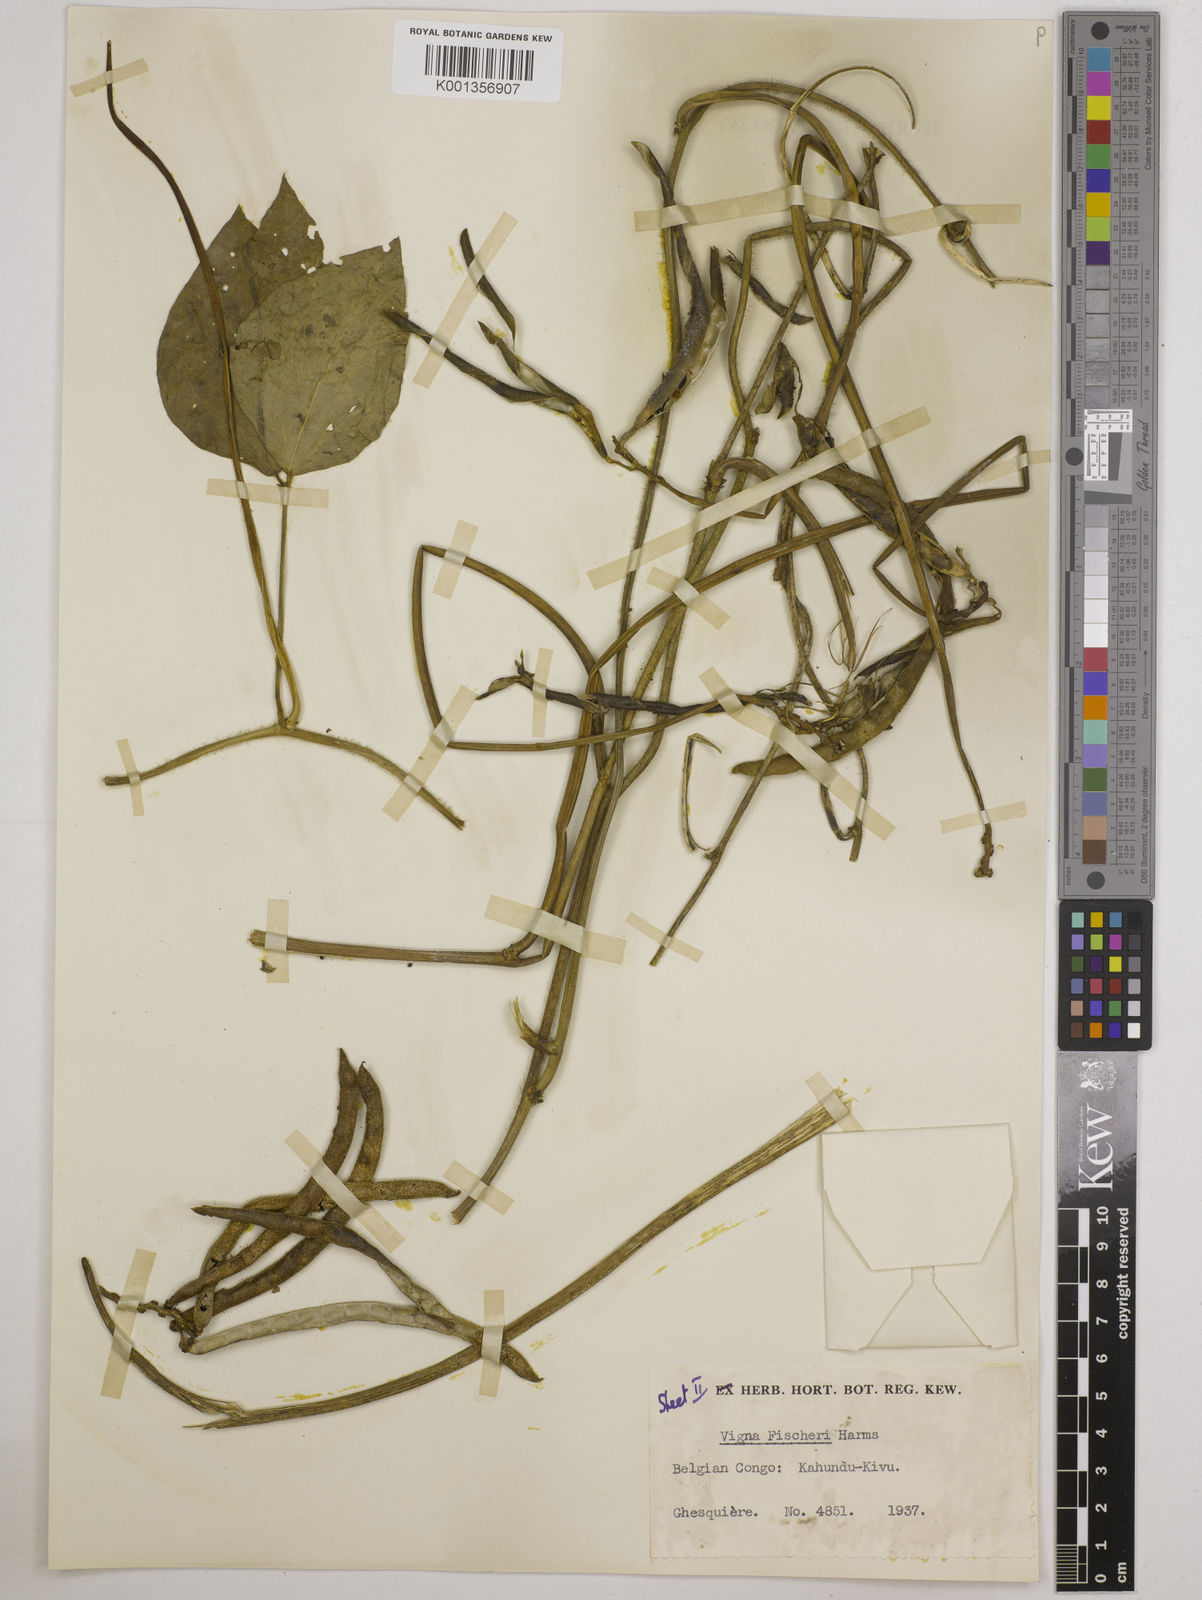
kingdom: Plantae
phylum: Tracheophyta
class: Magnoliopsida
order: Fabales
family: Fabaceae
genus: Vigna
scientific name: Vigna bequaertii
